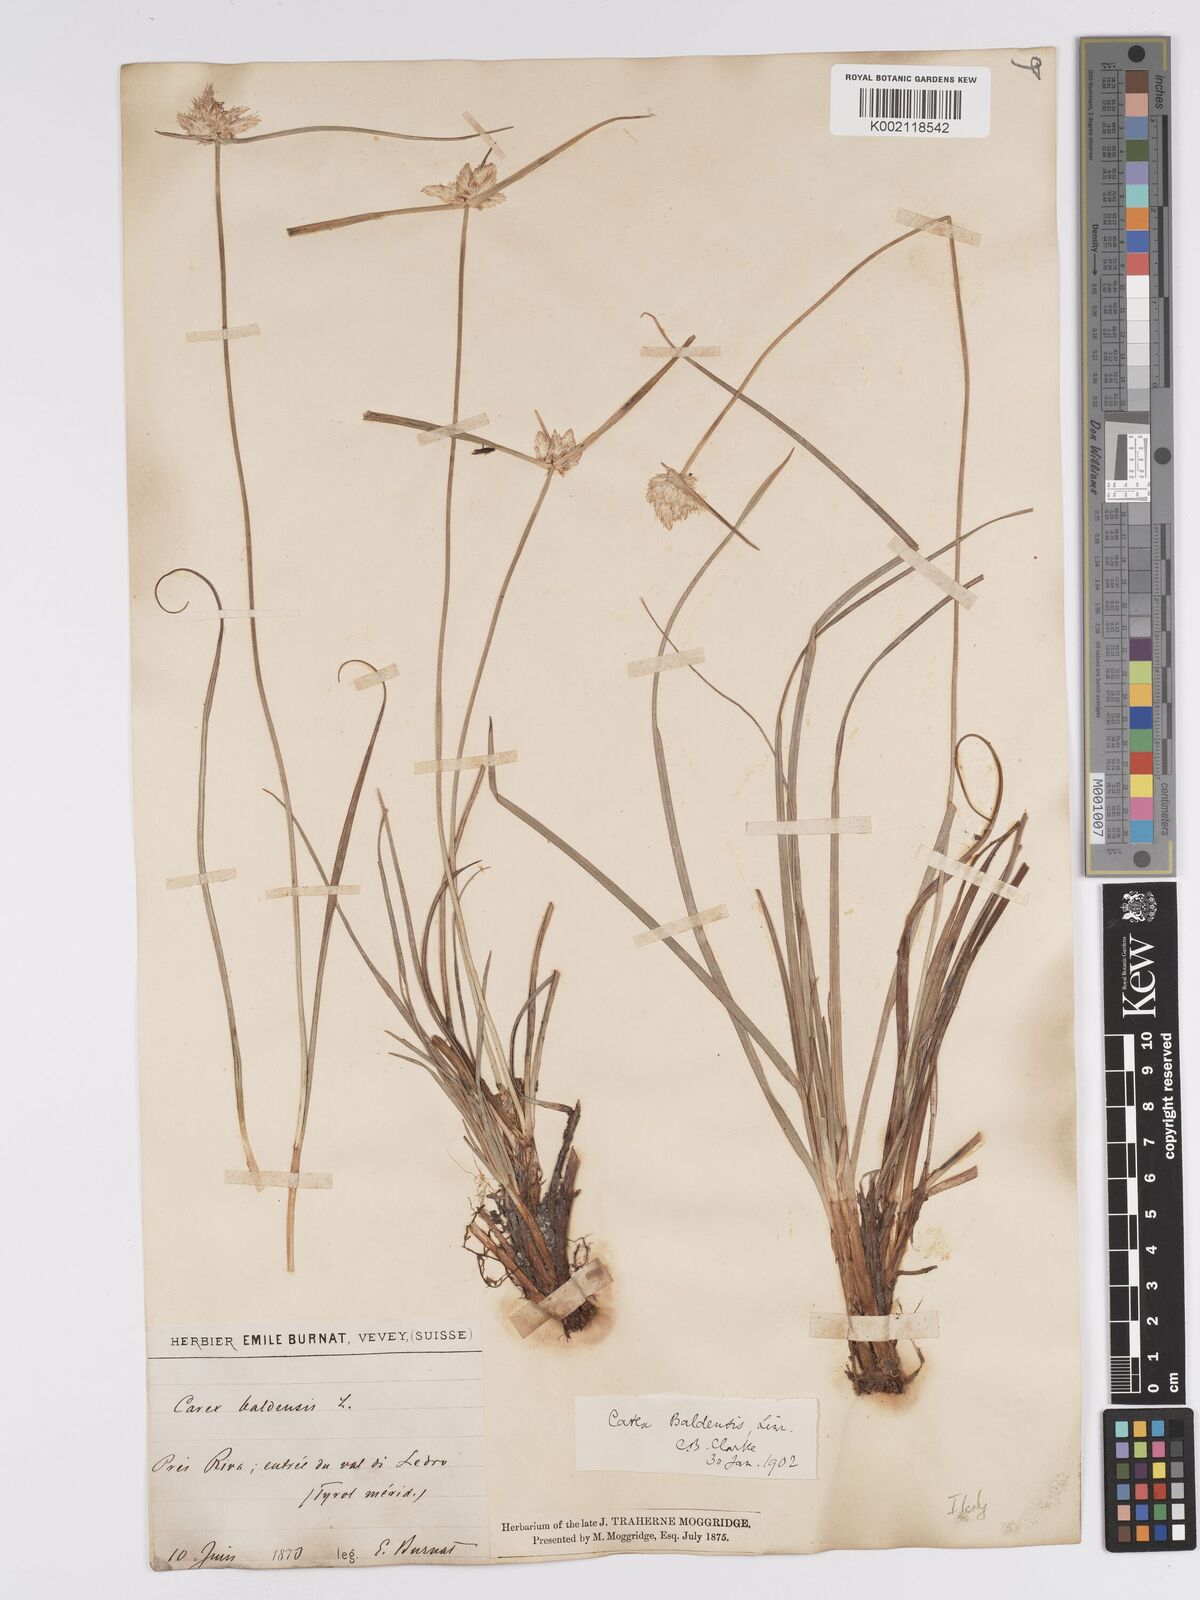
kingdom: Plantae
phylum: Tracheophyta
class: Liliopsida
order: Poales
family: Cyperaceae
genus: Carex
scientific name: Carex baldensis
